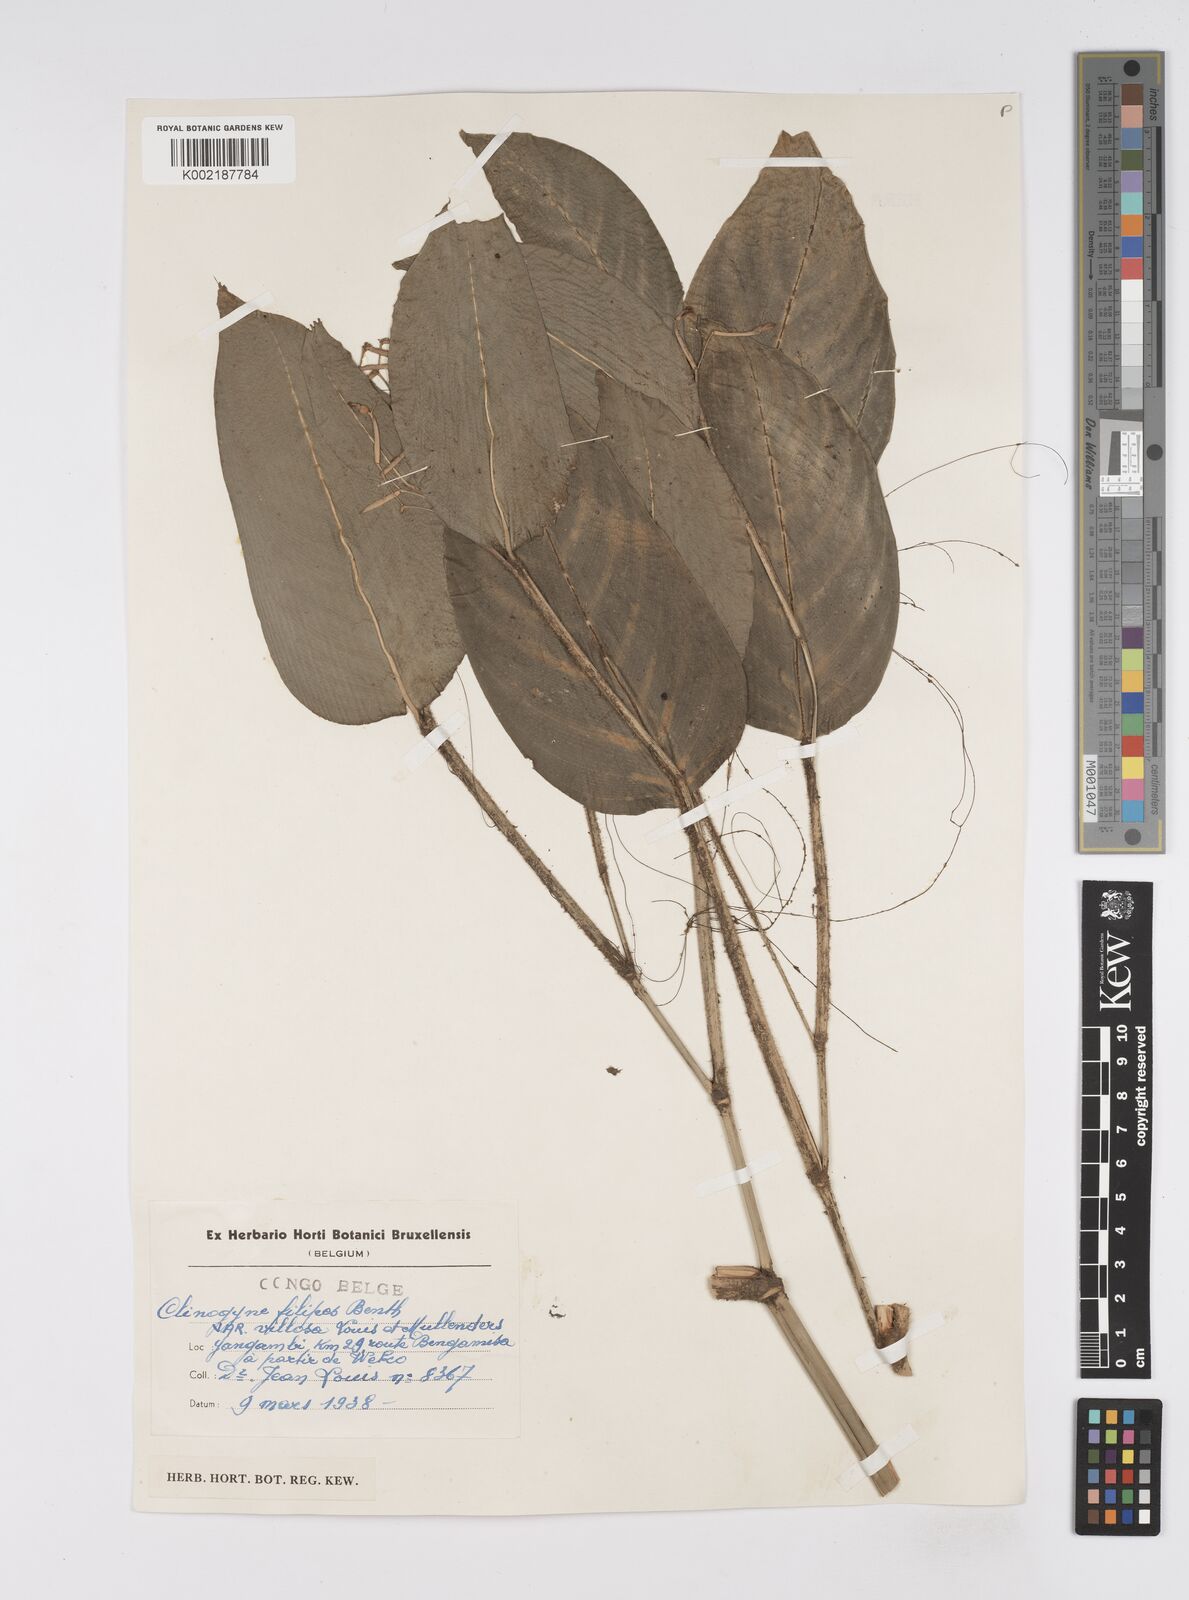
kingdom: Plantae
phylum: Tracheophyta
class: Liliopsida
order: Zingiberales
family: Marantaceae
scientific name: Marantaceae
